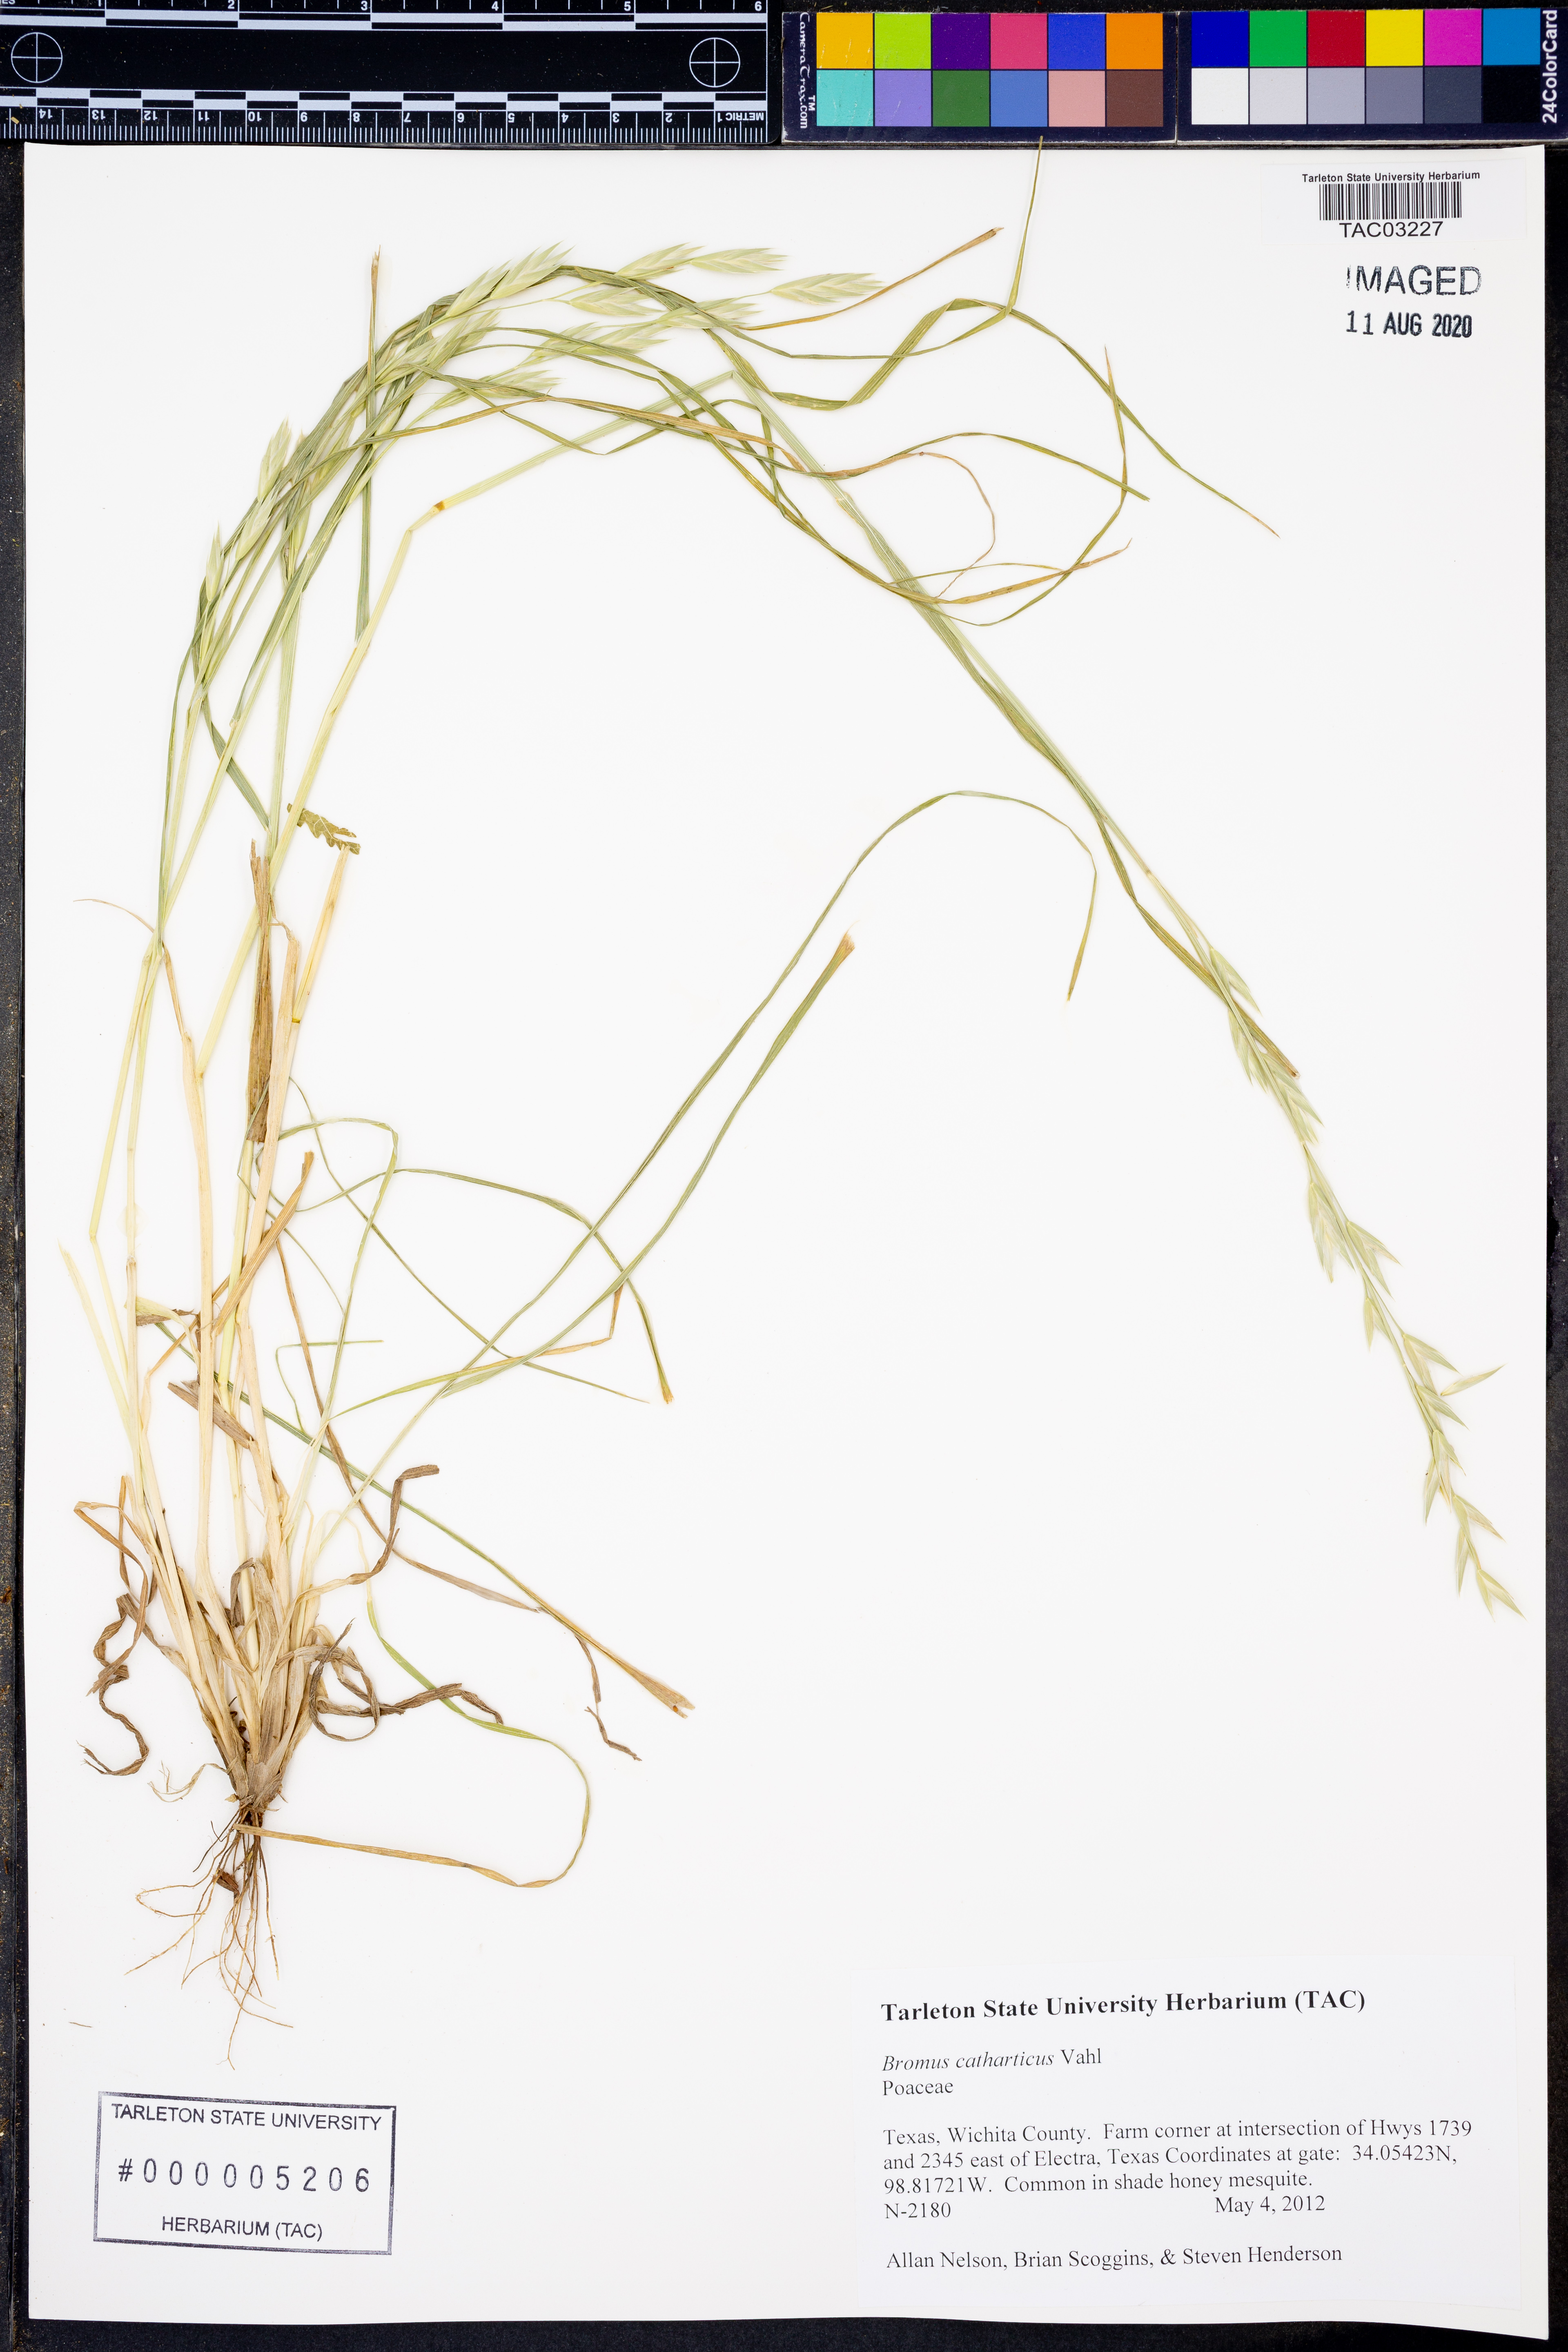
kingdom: Plantae
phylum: Tracheophyta
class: Liliopsida
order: Poales
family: Poaceae
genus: Bromus
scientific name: Bromus catharticus
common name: Rescuegrass
